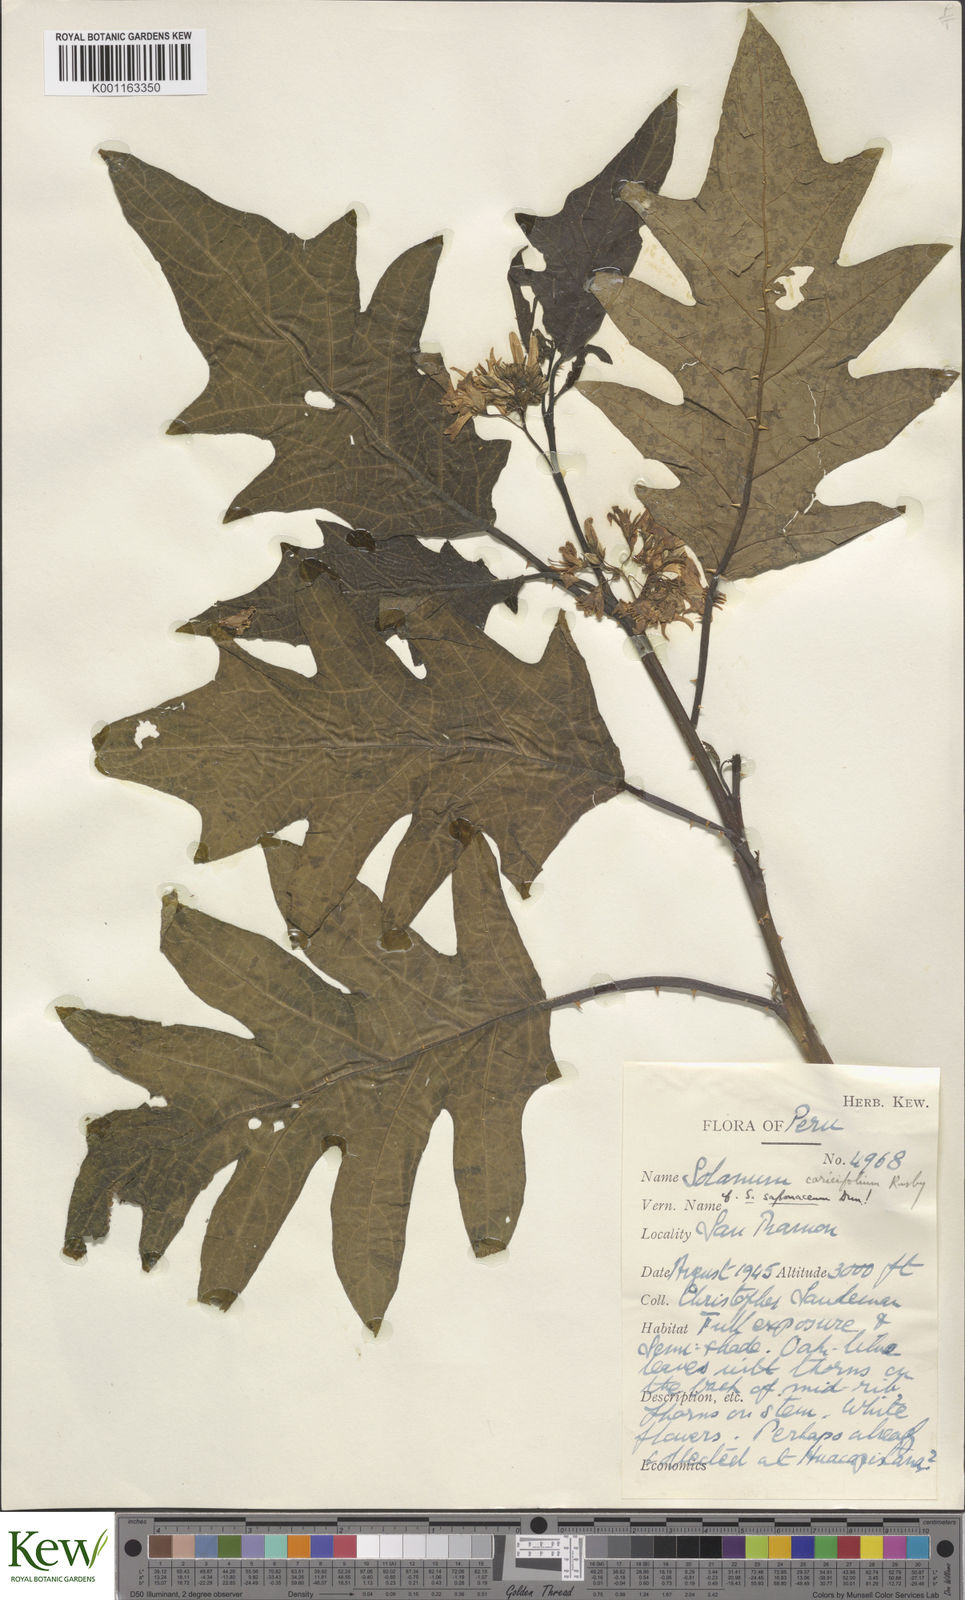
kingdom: Plantae
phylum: Tracheophyta
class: Magnoliopsida
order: Solanales
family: Solanaceae
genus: Solanum
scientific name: Solanum caricaefolium
